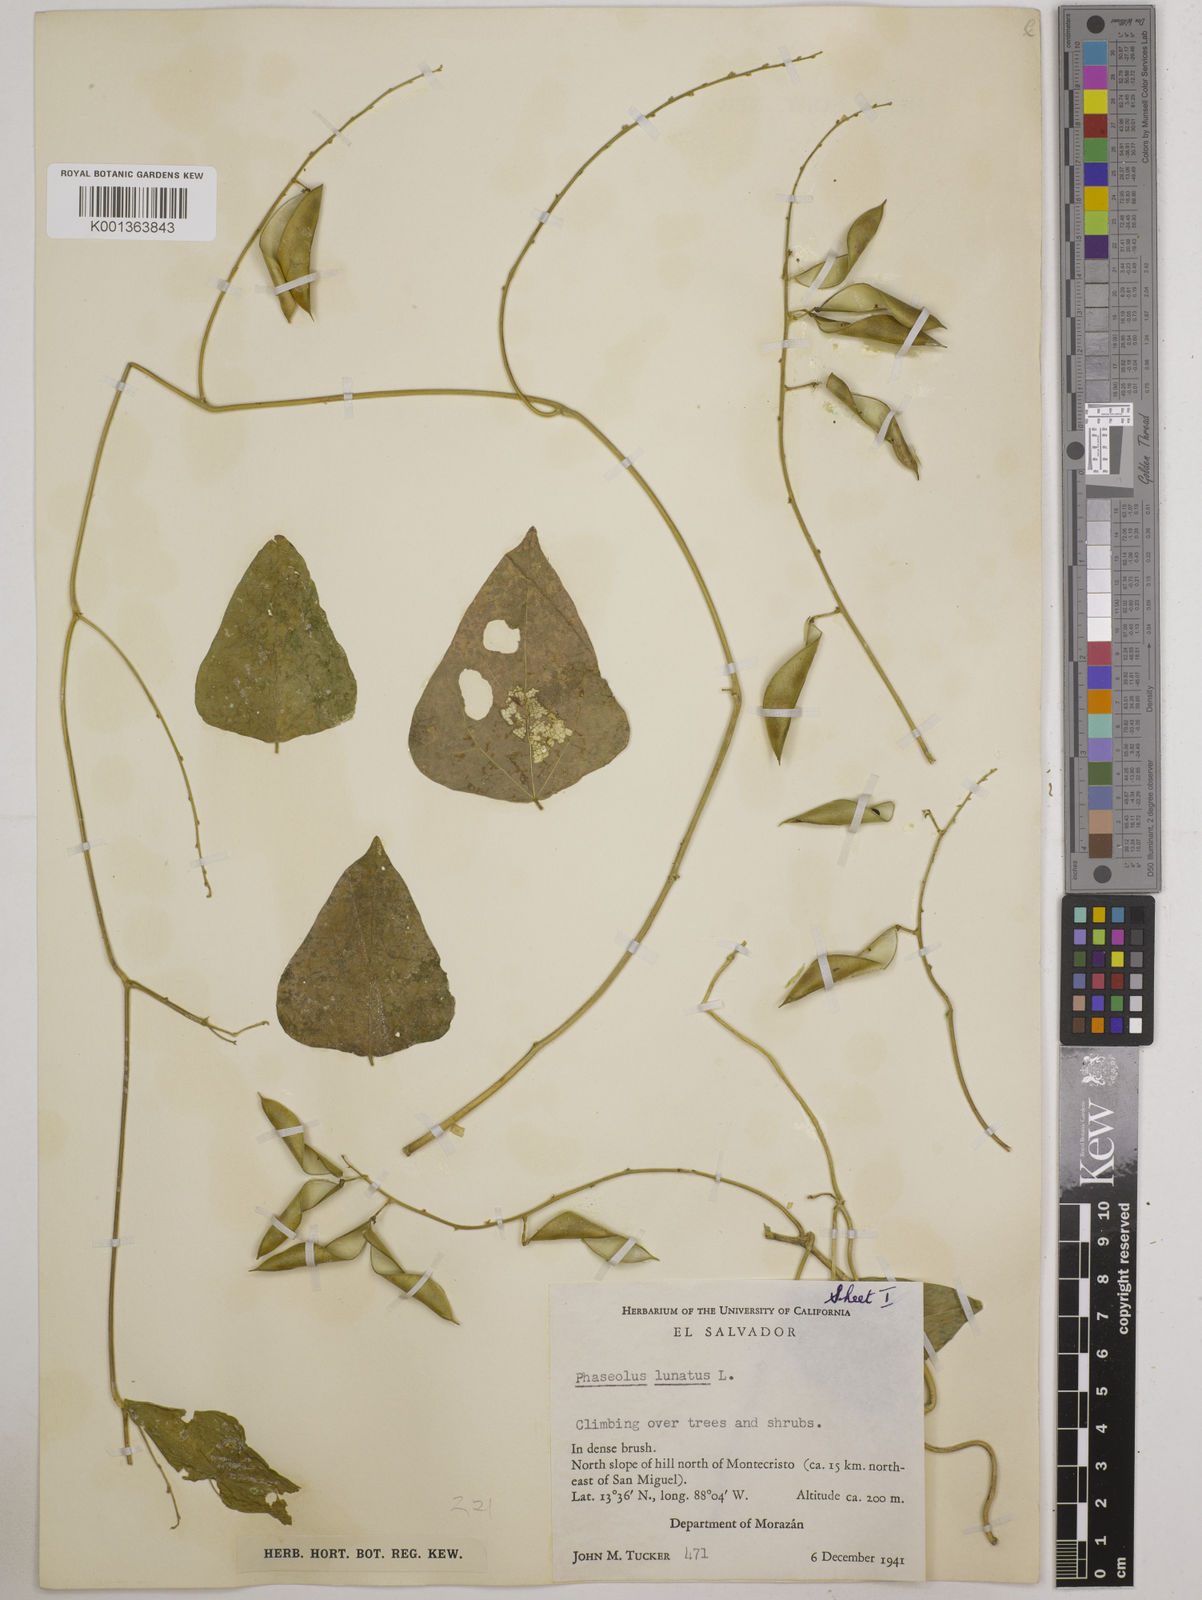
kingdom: Plantae
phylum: Tracheophyta
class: Magnoliopsida
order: Fabales
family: Fabaceae
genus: Phaseolus
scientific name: Phaseolus lunatus
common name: Sieva bean
